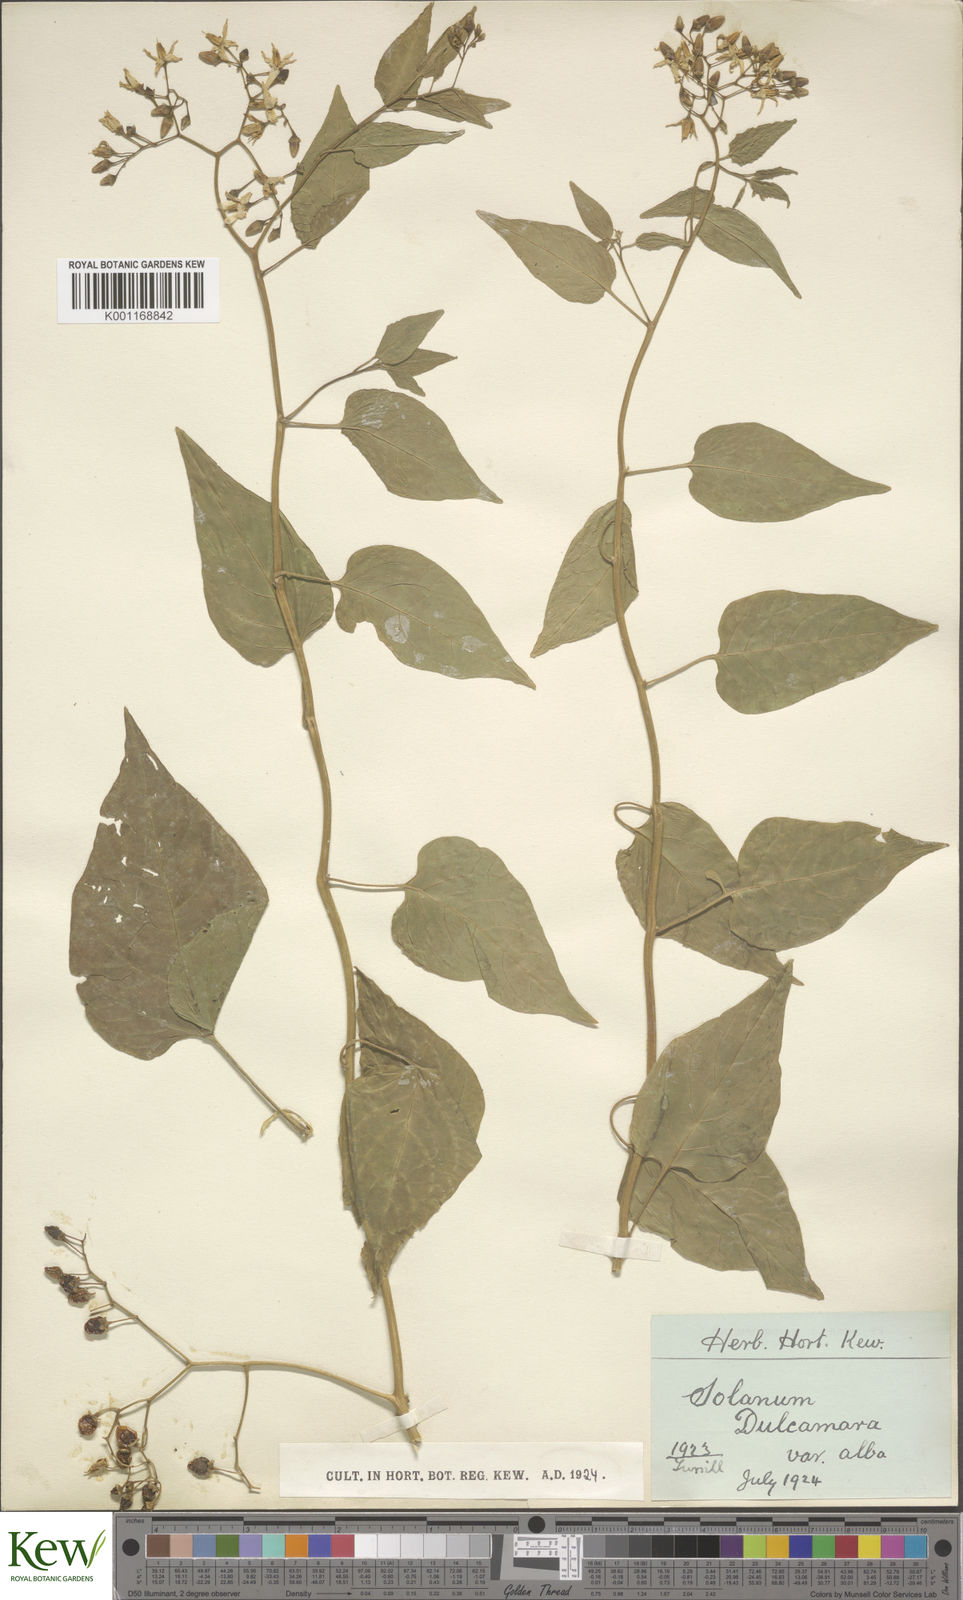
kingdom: Plantae
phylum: Tracheophyta
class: Magnoliopsida
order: Solanales
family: Solanaceae
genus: Solanum
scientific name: Solanum dulcamara
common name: Climbing nightshade
